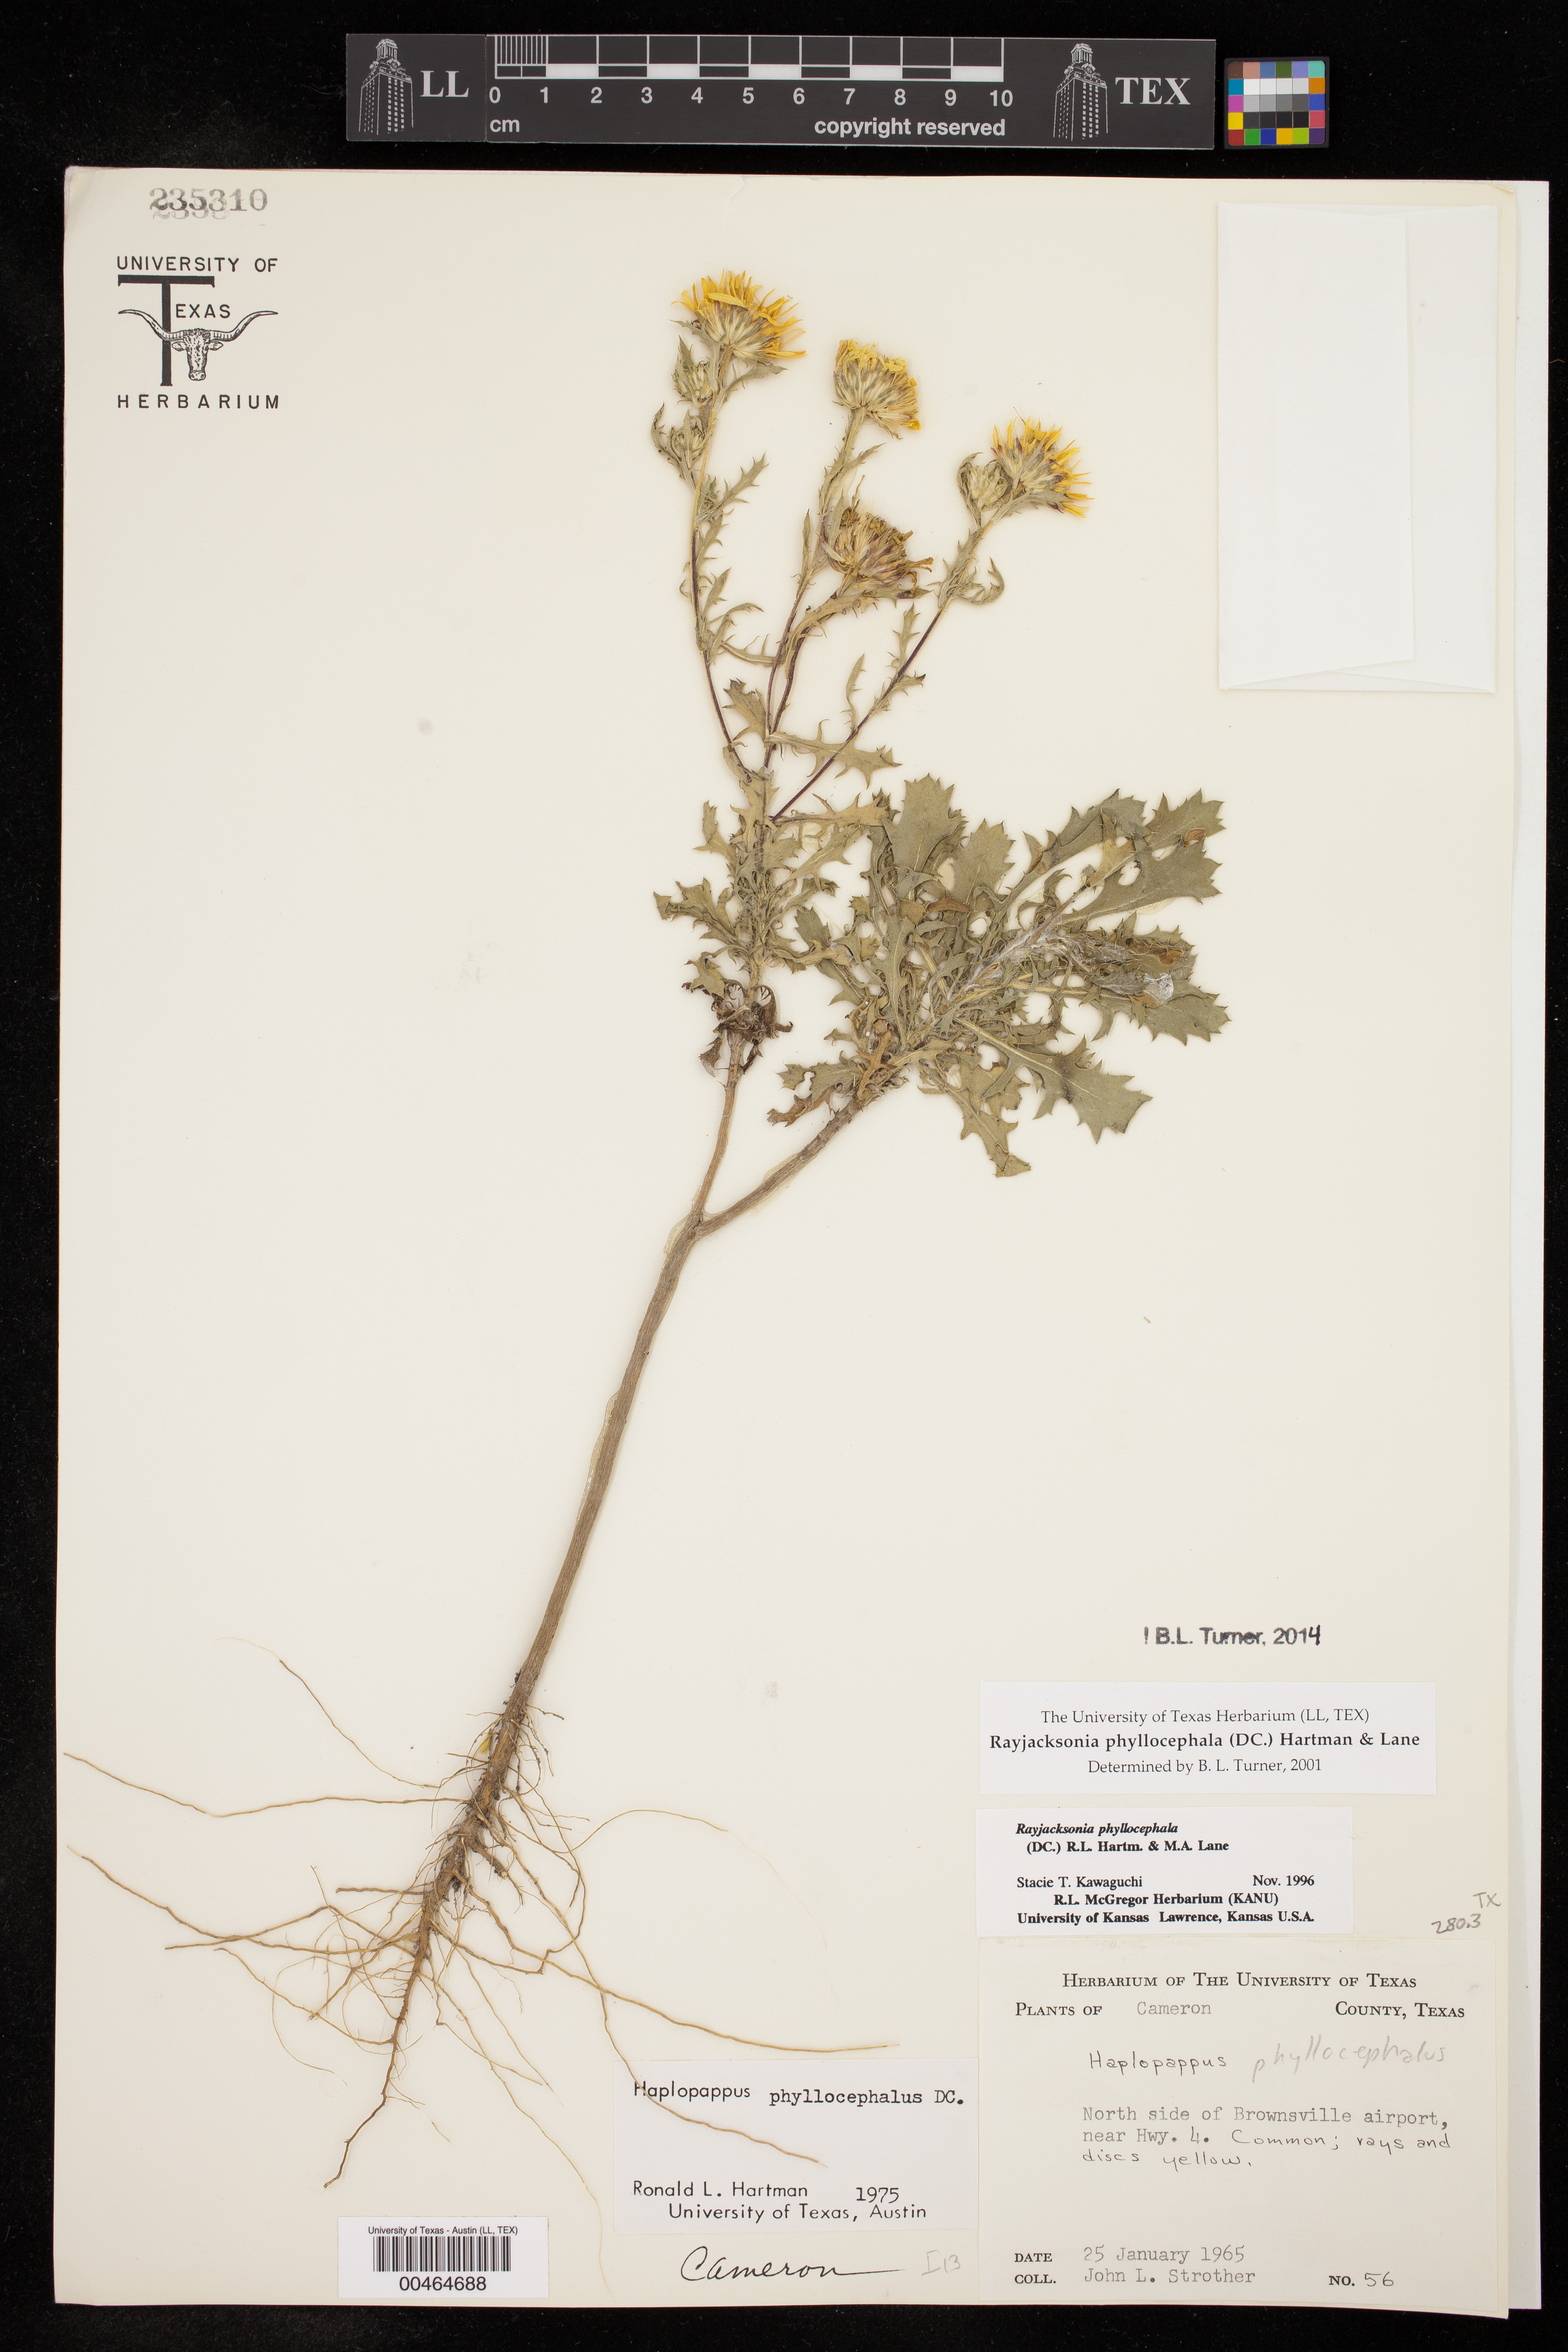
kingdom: Plantae
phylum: Tracheophyta
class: Magnoliopsida
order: Asterales
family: Asteraceae
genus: Rayjacksonia
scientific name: Rayjacksonia phyllocephala
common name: Gulf coast camphor daisy
